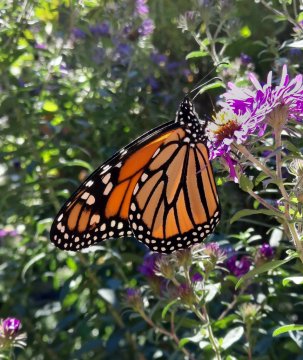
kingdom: Animalia
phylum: Arthropoda
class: Insecta
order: Lepidoptera
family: Nymphalidae
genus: Danaus
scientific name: Danaus plexippus
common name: Monarch
